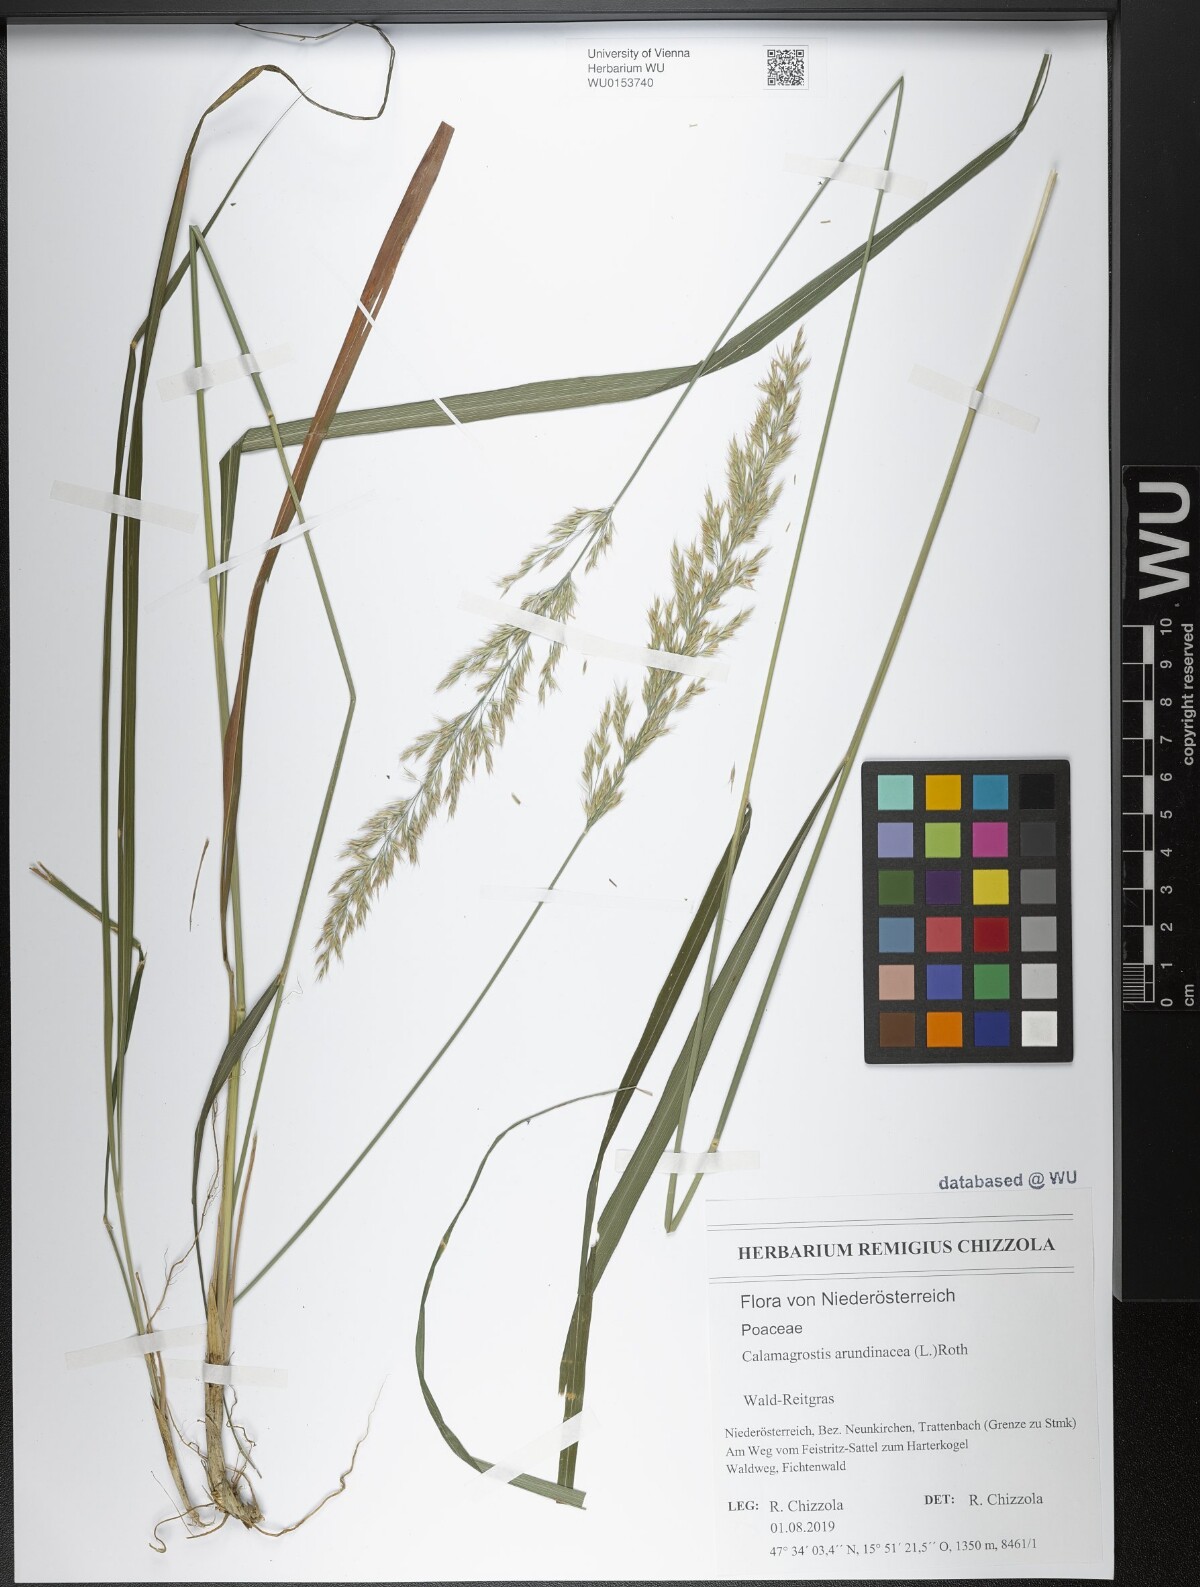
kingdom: Plantae
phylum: Tracheophyta
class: Liliopsida
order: Poales
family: Poaceae
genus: Calamagrostis
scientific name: Calamagrostis arundinacea
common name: Metskastik
